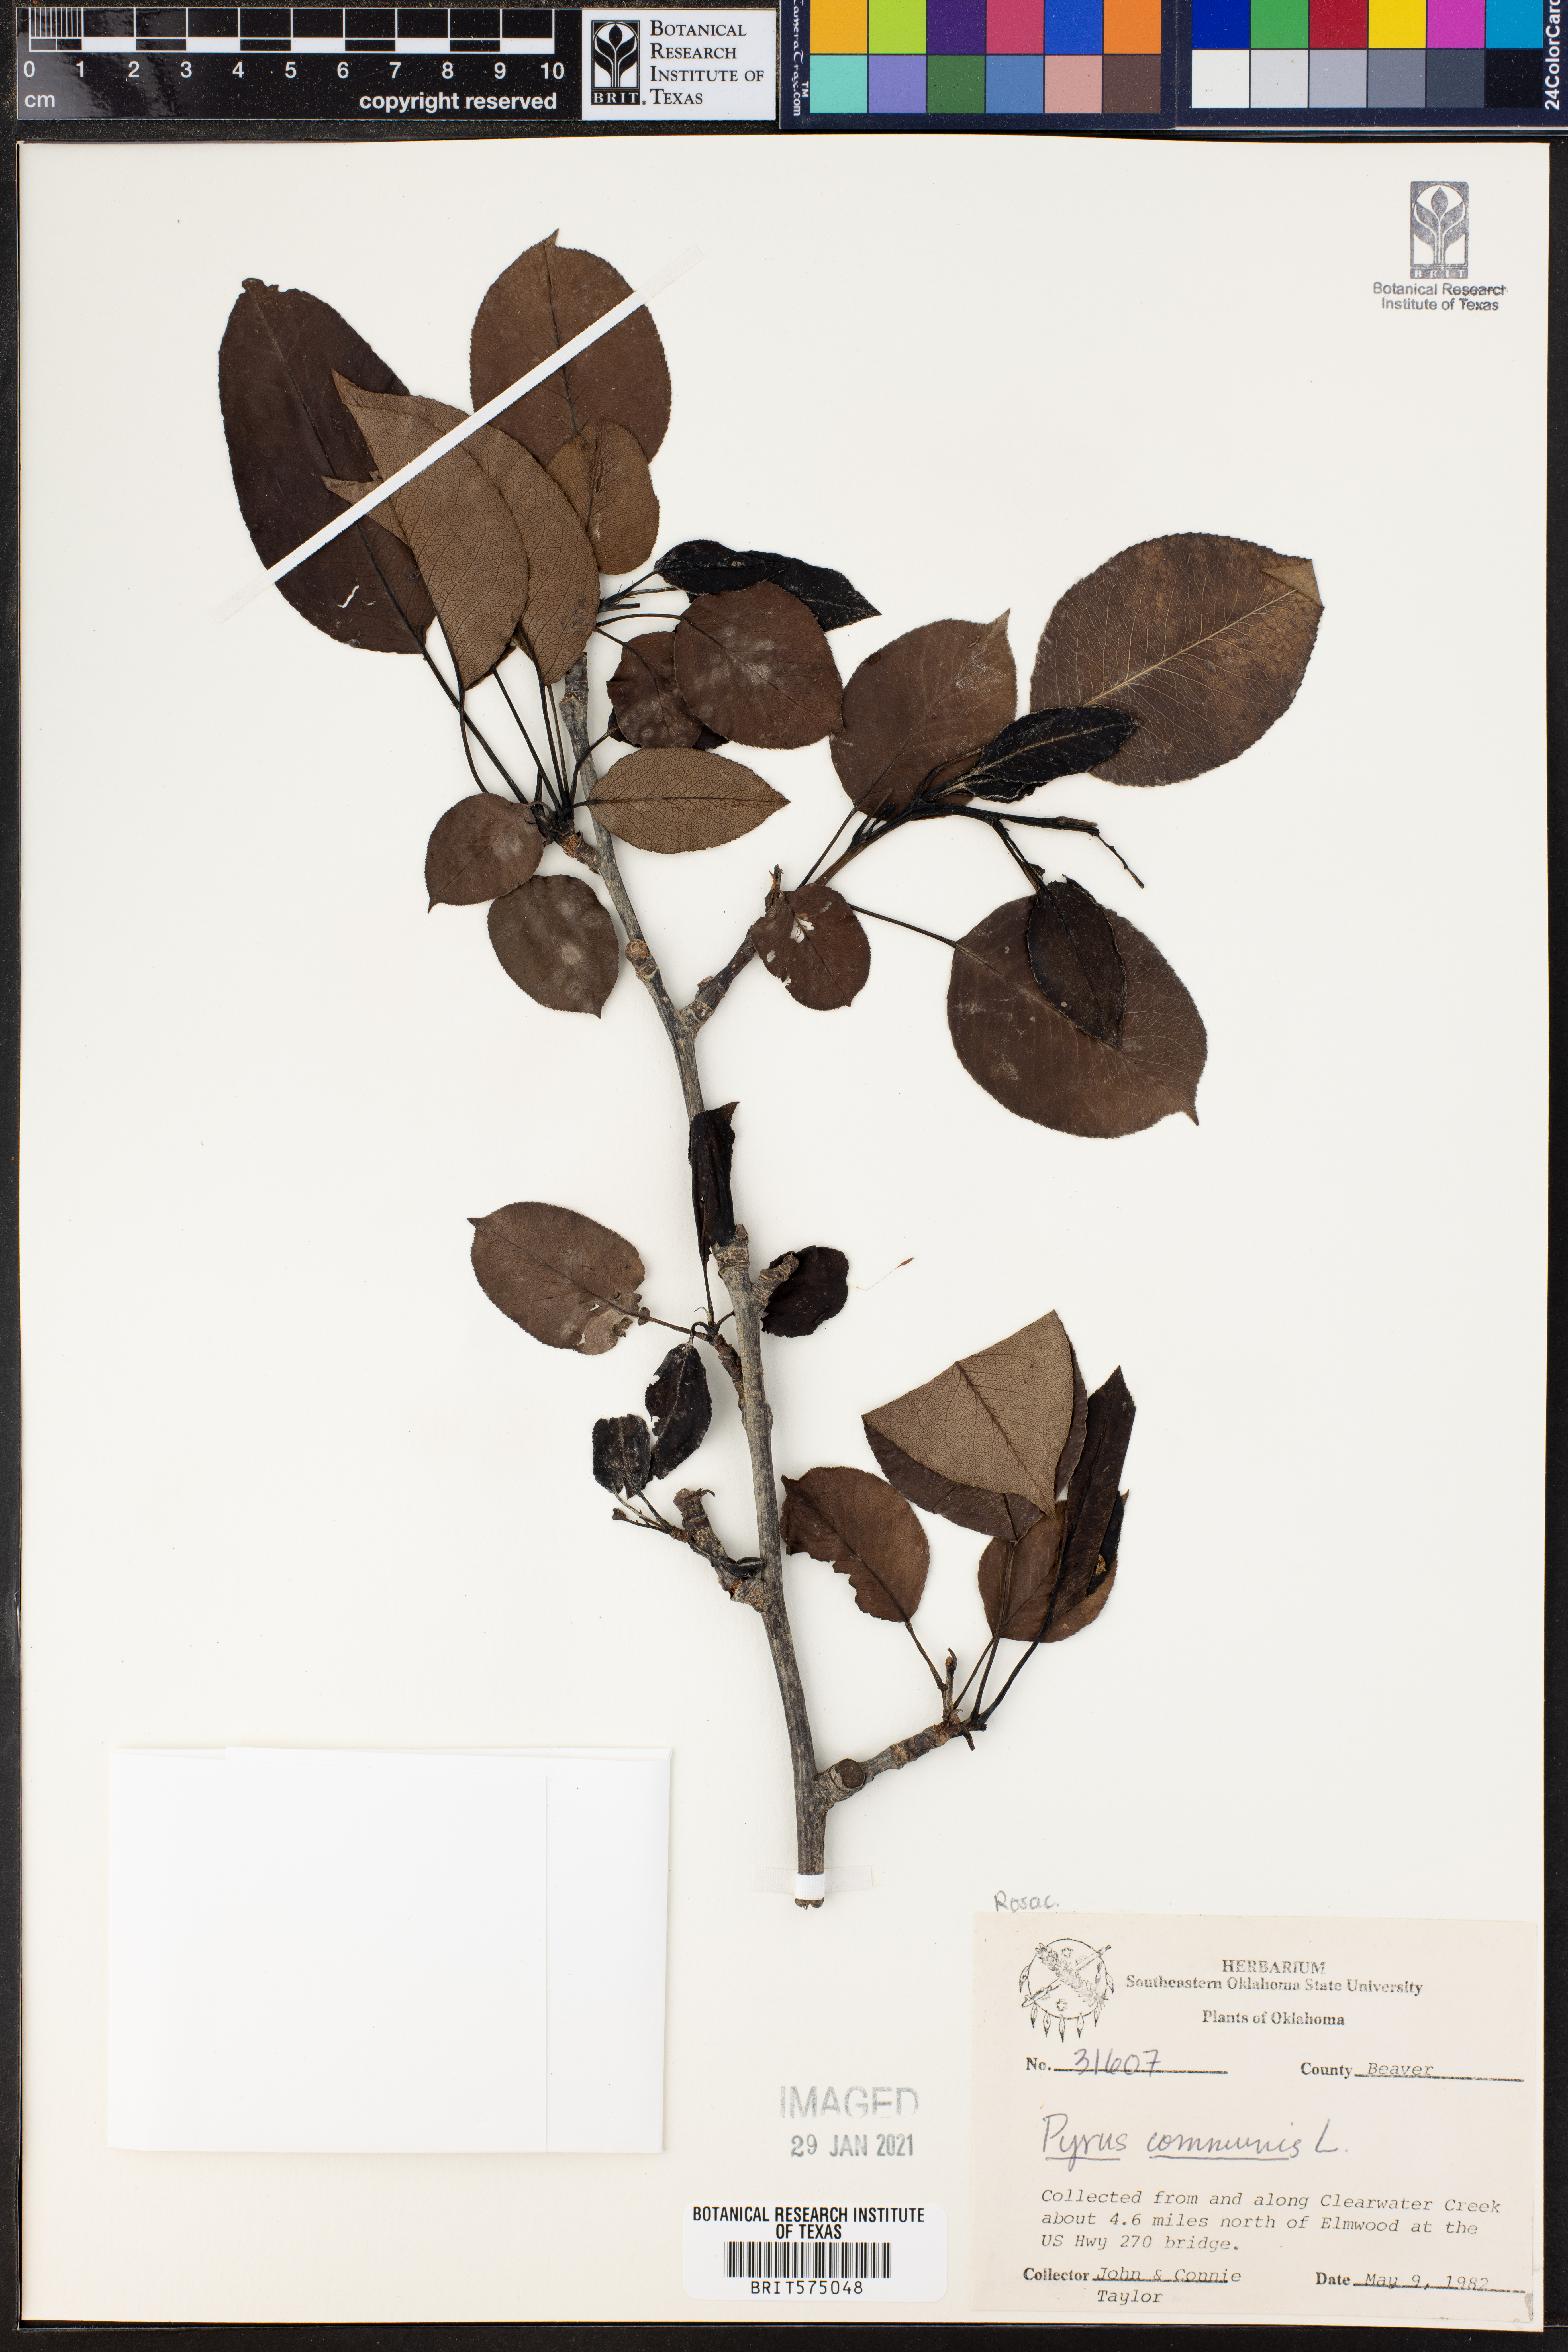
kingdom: Plantae
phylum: Tracheophyta
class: Magnoliopsida
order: Rosales
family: Rosaceae
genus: Pyrus
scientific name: Pyrus communis
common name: Pear
